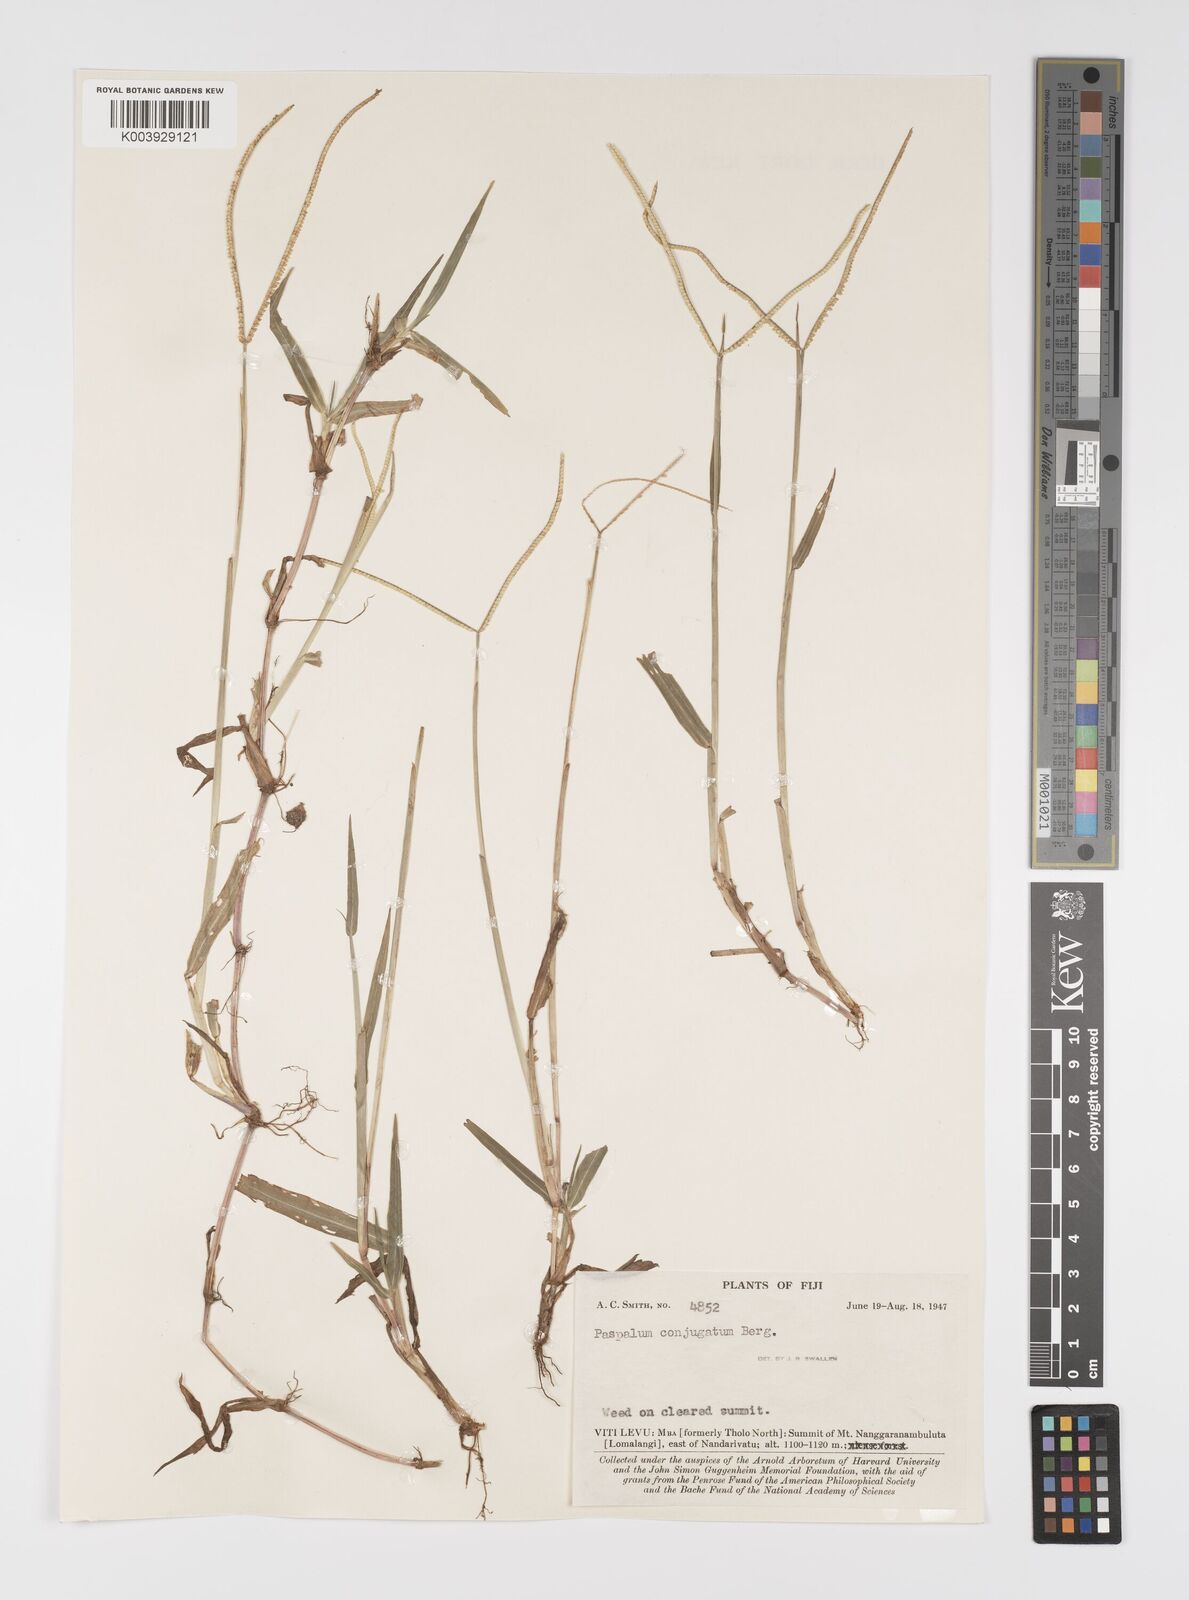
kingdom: Plantae
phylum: Tracheophyta
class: Liliopsida
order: Poales
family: Poaceae
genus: Paspalum
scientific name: Paspalum conjugatum
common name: Hilograss
